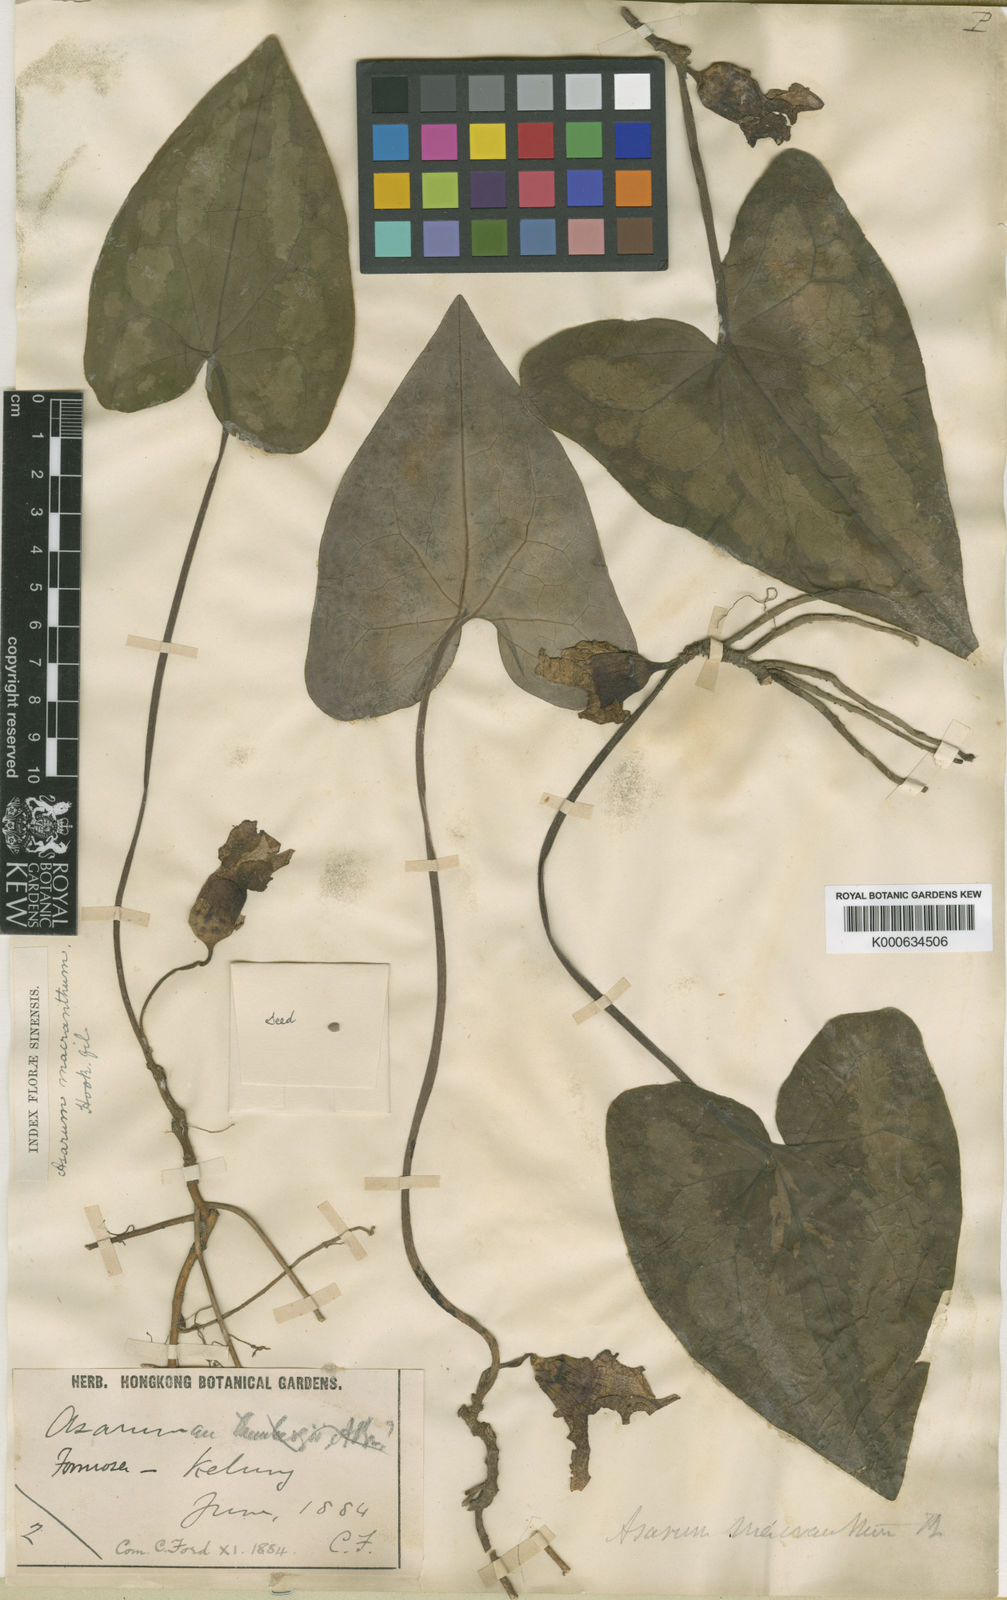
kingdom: Plantae
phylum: Tracheophyta
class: Magnoliopsida
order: Piperales
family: Aristolochiaceae
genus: Asarum
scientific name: Asarum macranthum
